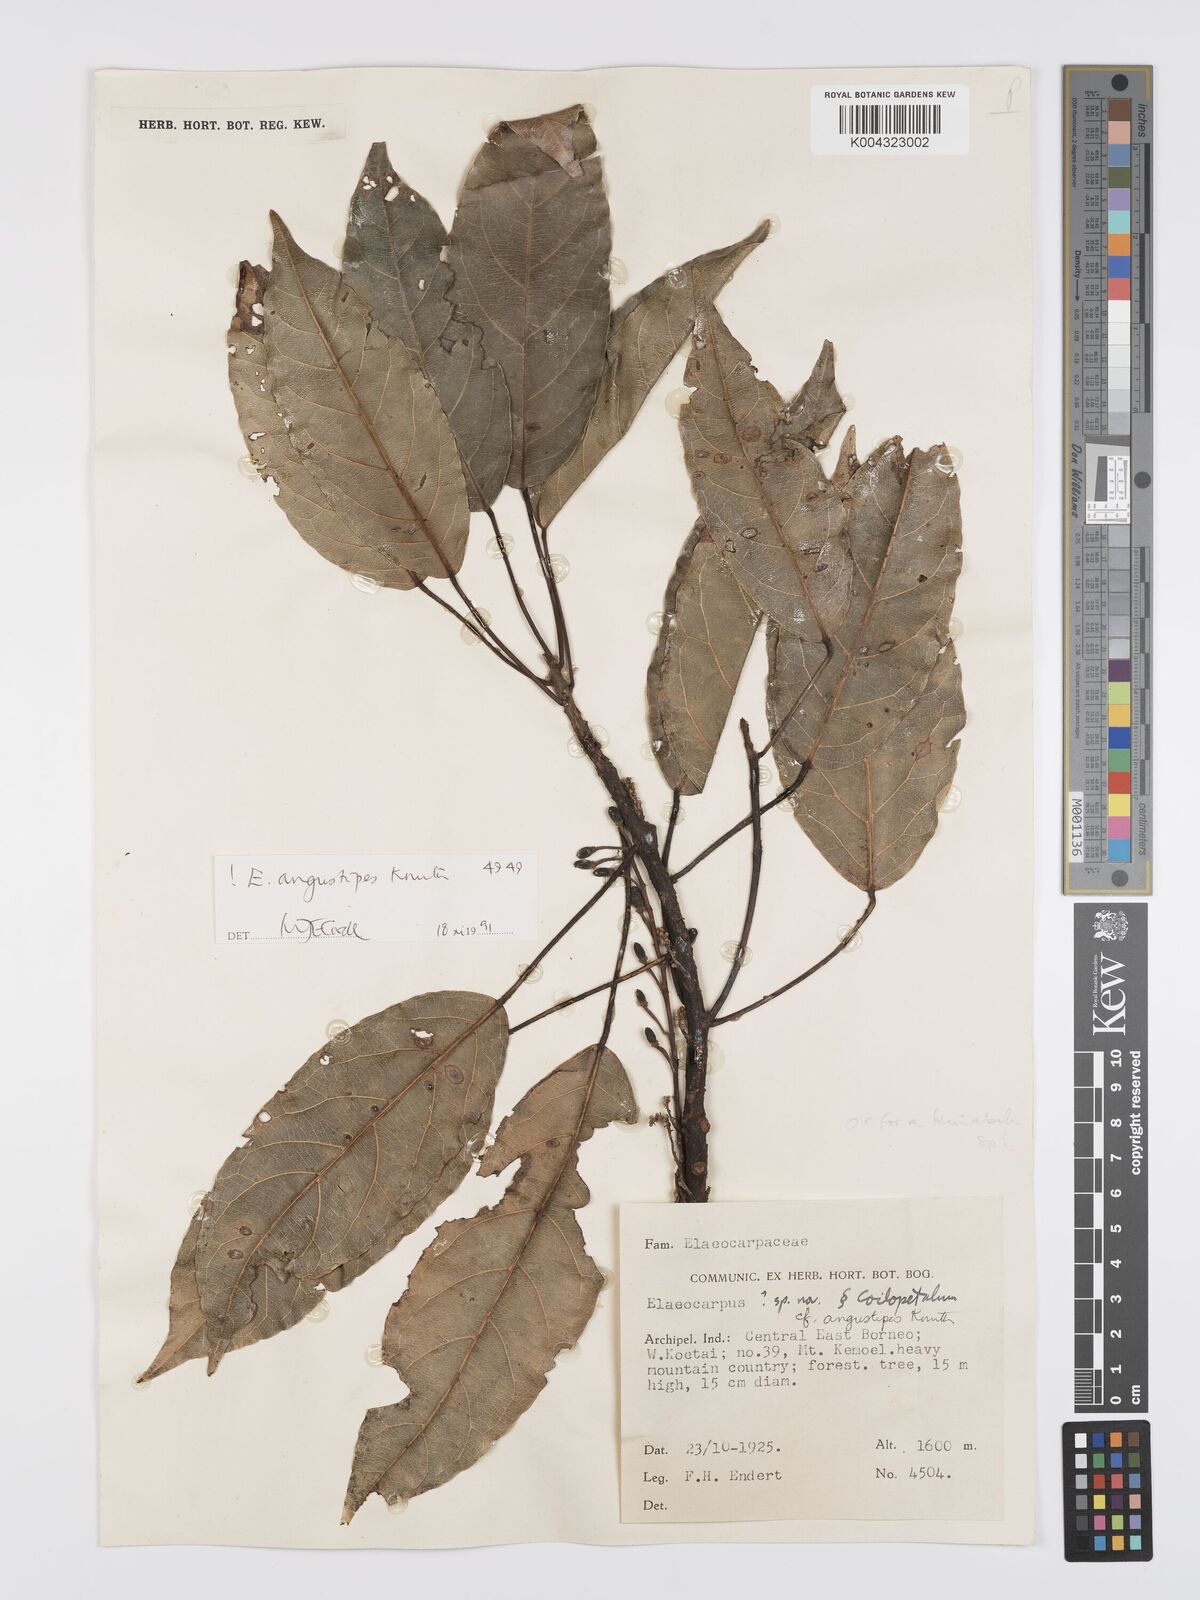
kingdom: Plantae
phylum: Tracheophyta
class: Magnoliopsida
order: Oxalidales
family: Elaeocarpaceae
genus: Elaeocarpus
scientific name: Elaeocarpus angustipes
